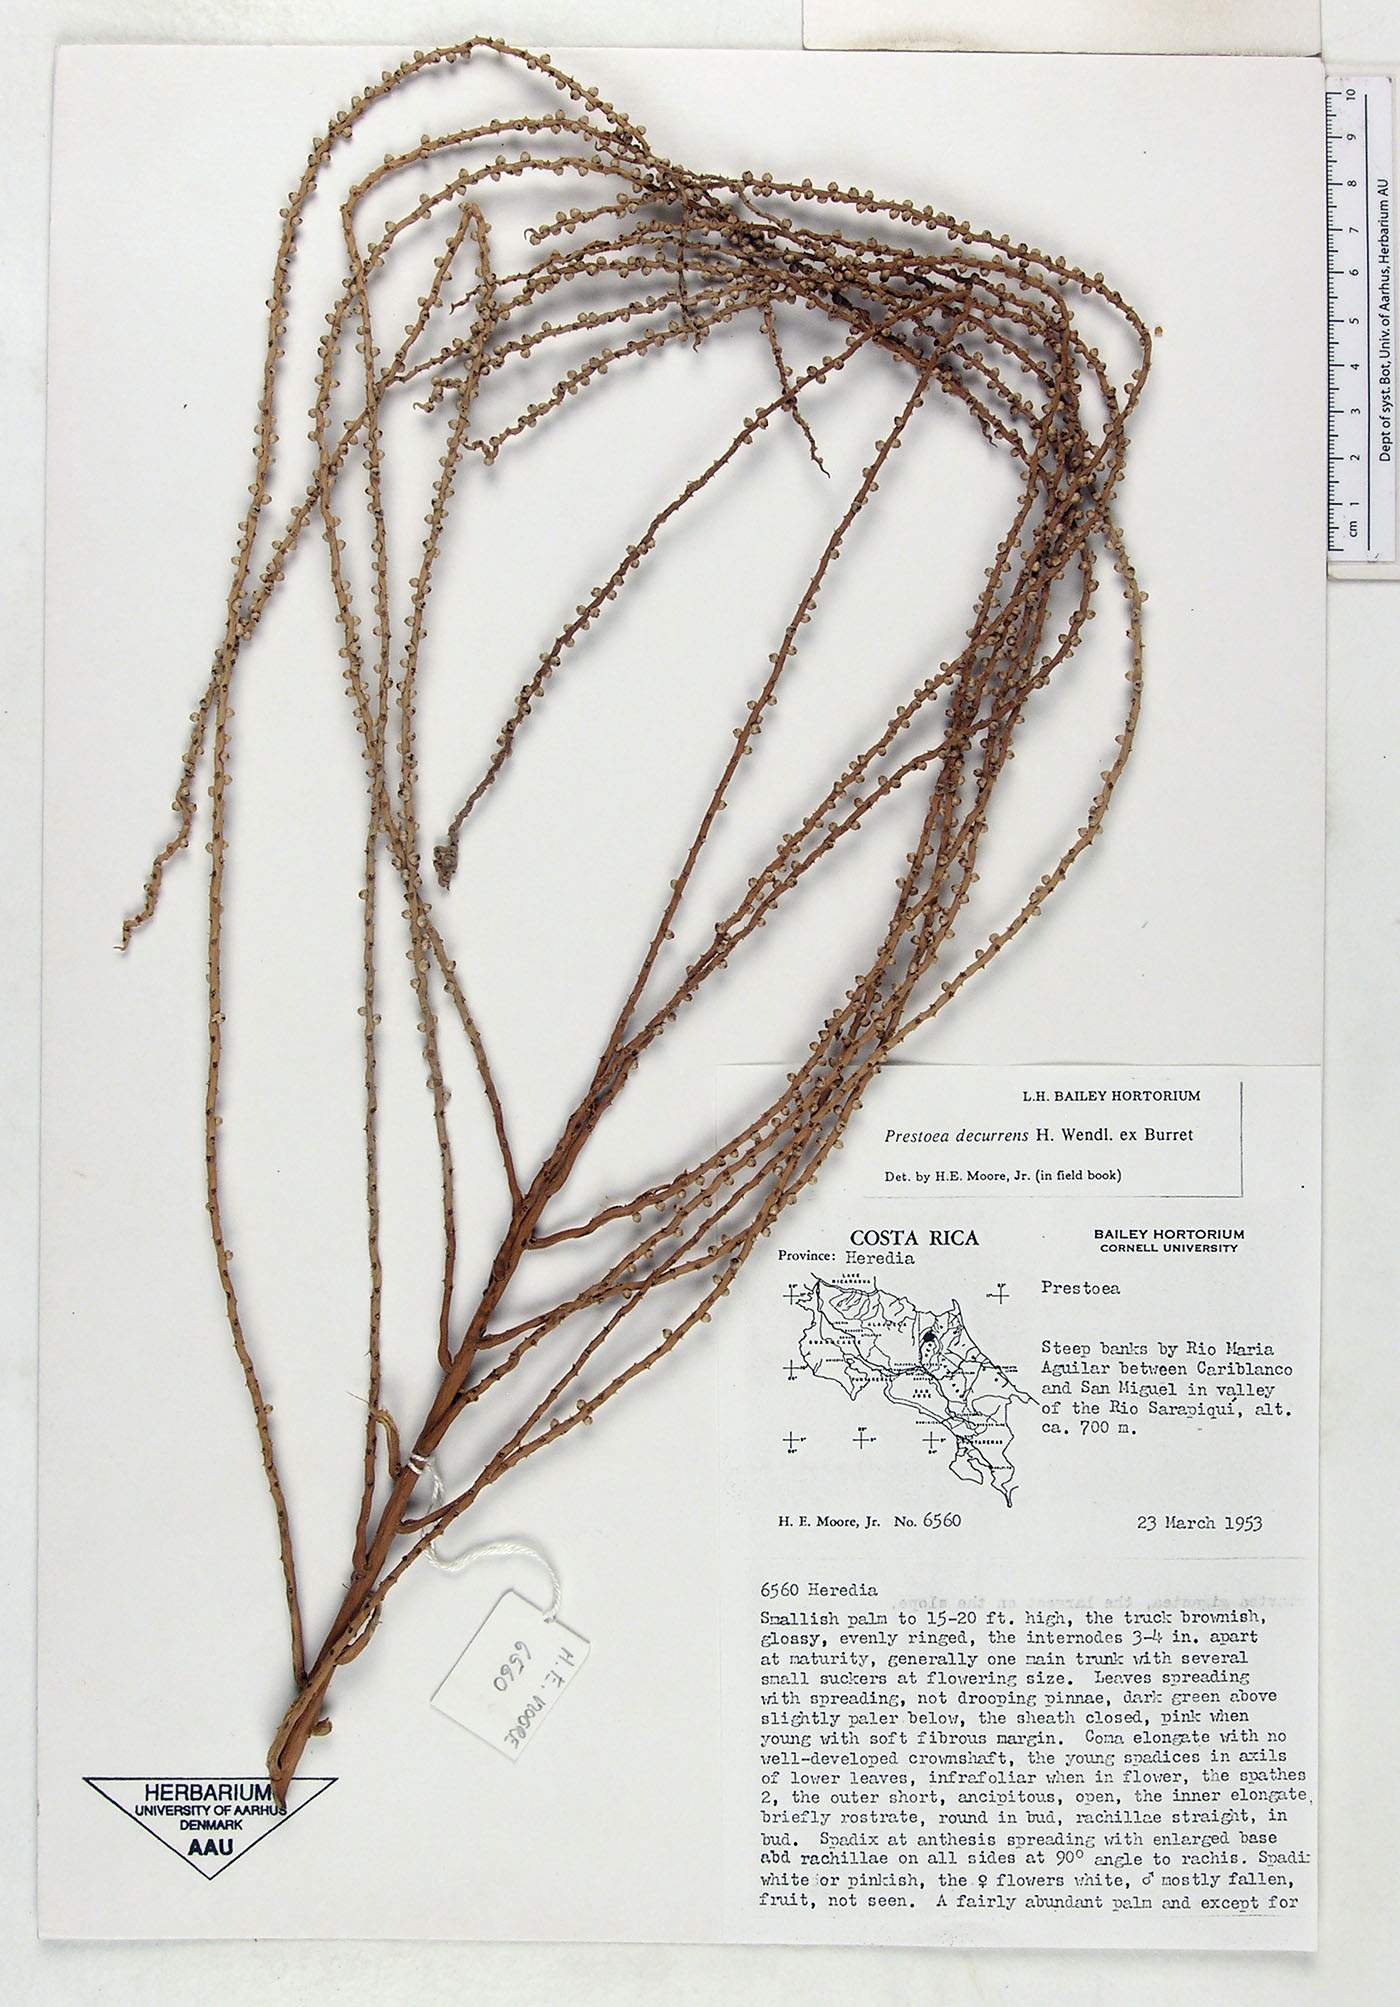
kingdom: Plantae
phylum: Tracheophyta
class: Liliopsida
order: Arecales
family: Arecaceae
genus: Prestoea
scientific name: Prestoea decurrens
